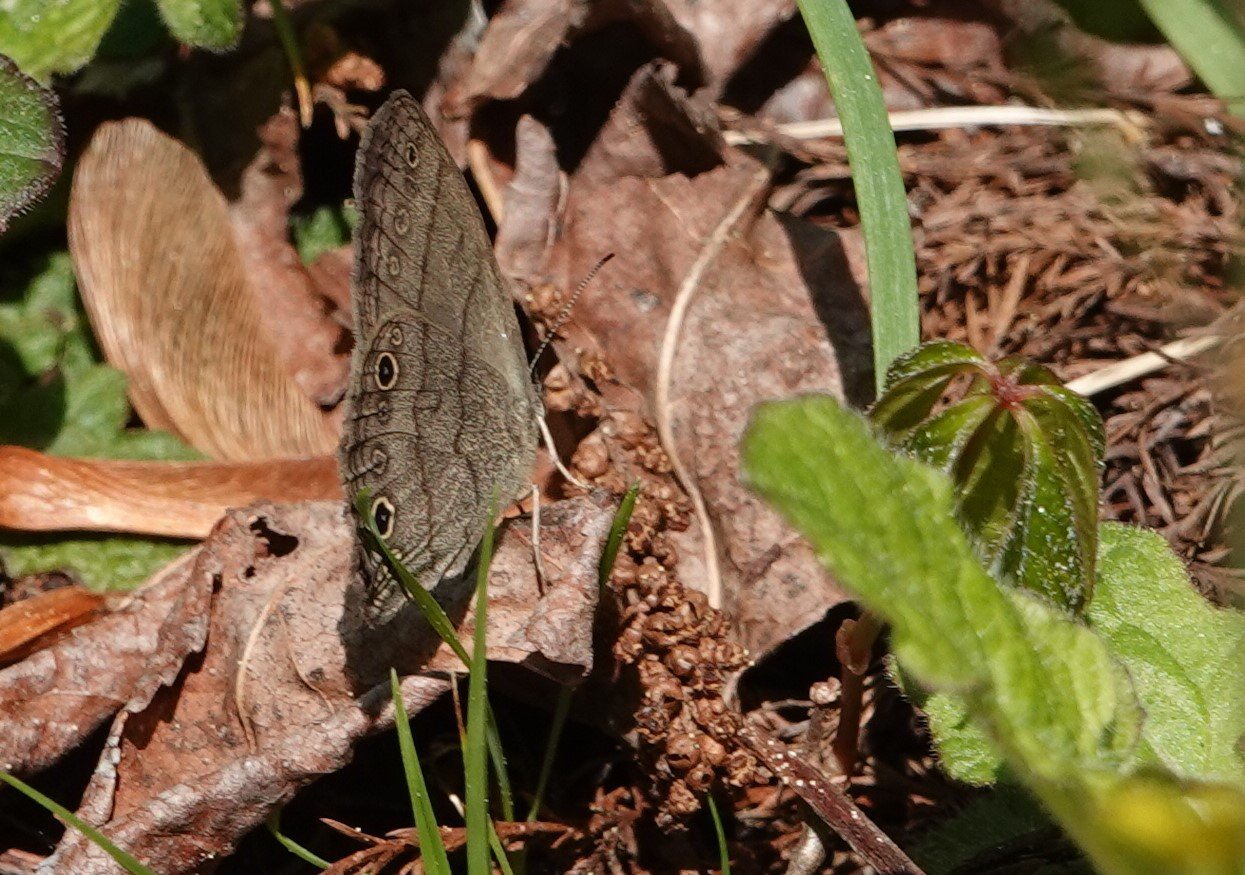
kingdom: Animalia
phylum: Arthropoda
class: Insecta
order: Lepidoptera
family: Nymphalidae
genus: Hermeuptychia
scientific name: Hermeuptychia hermes
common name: Carolina Satyr
